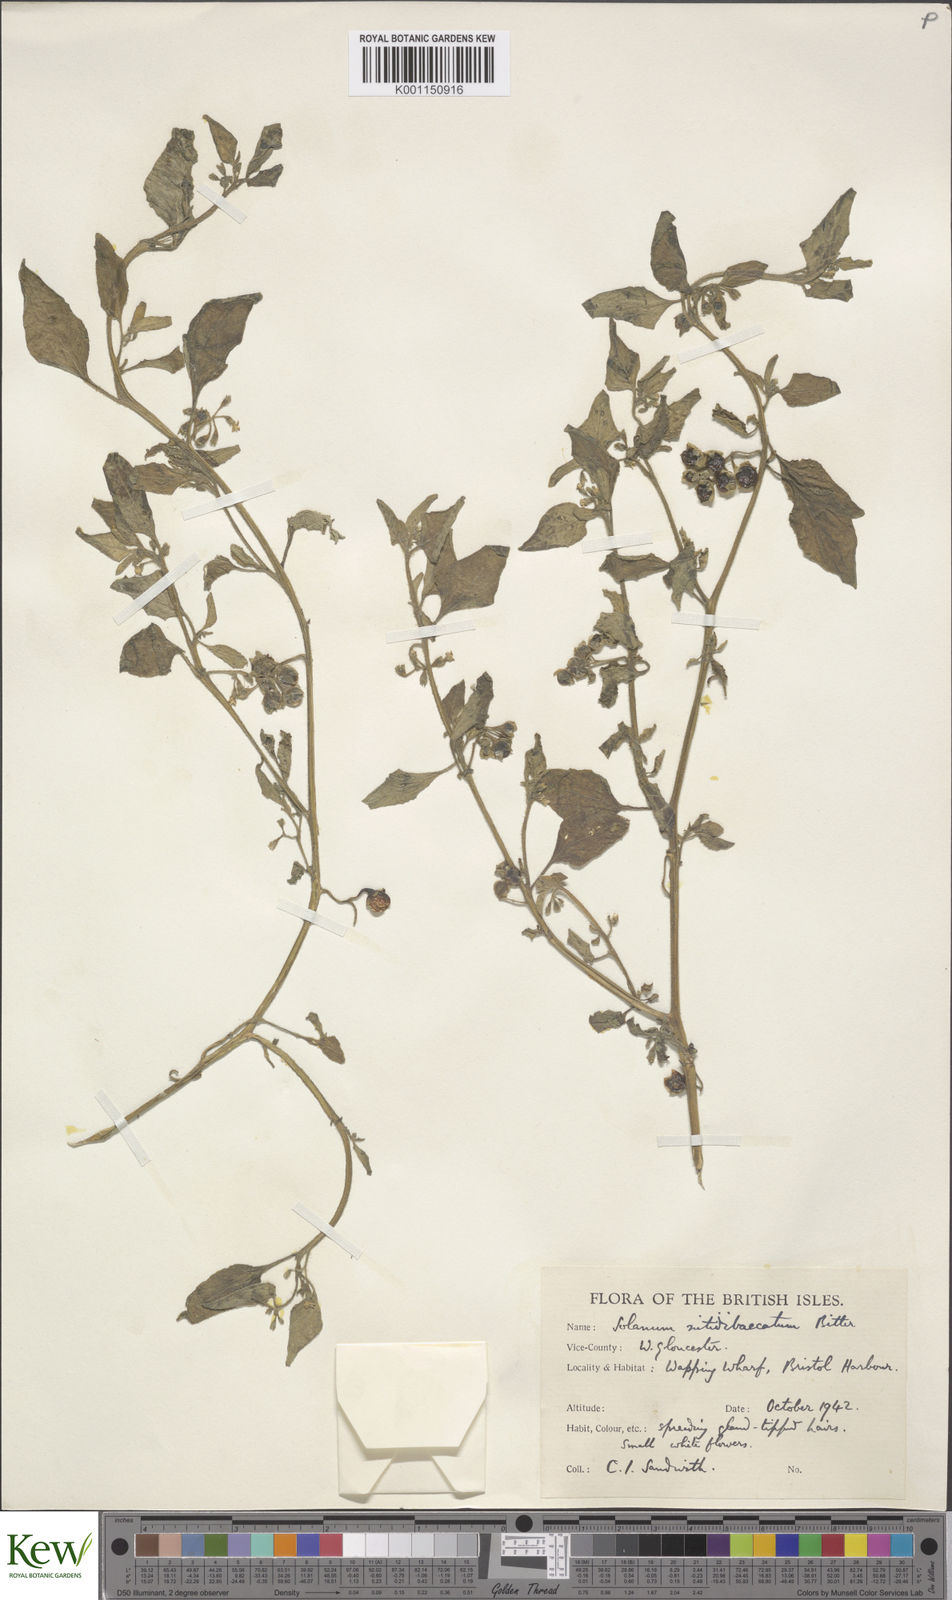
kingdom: Plantae
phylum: Tracheophyta
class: Magnoliopsida
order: Solanales
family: Solanaceae
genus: Solanum
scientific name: Solanum nitidibaccatum
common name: Hairy nightshade
